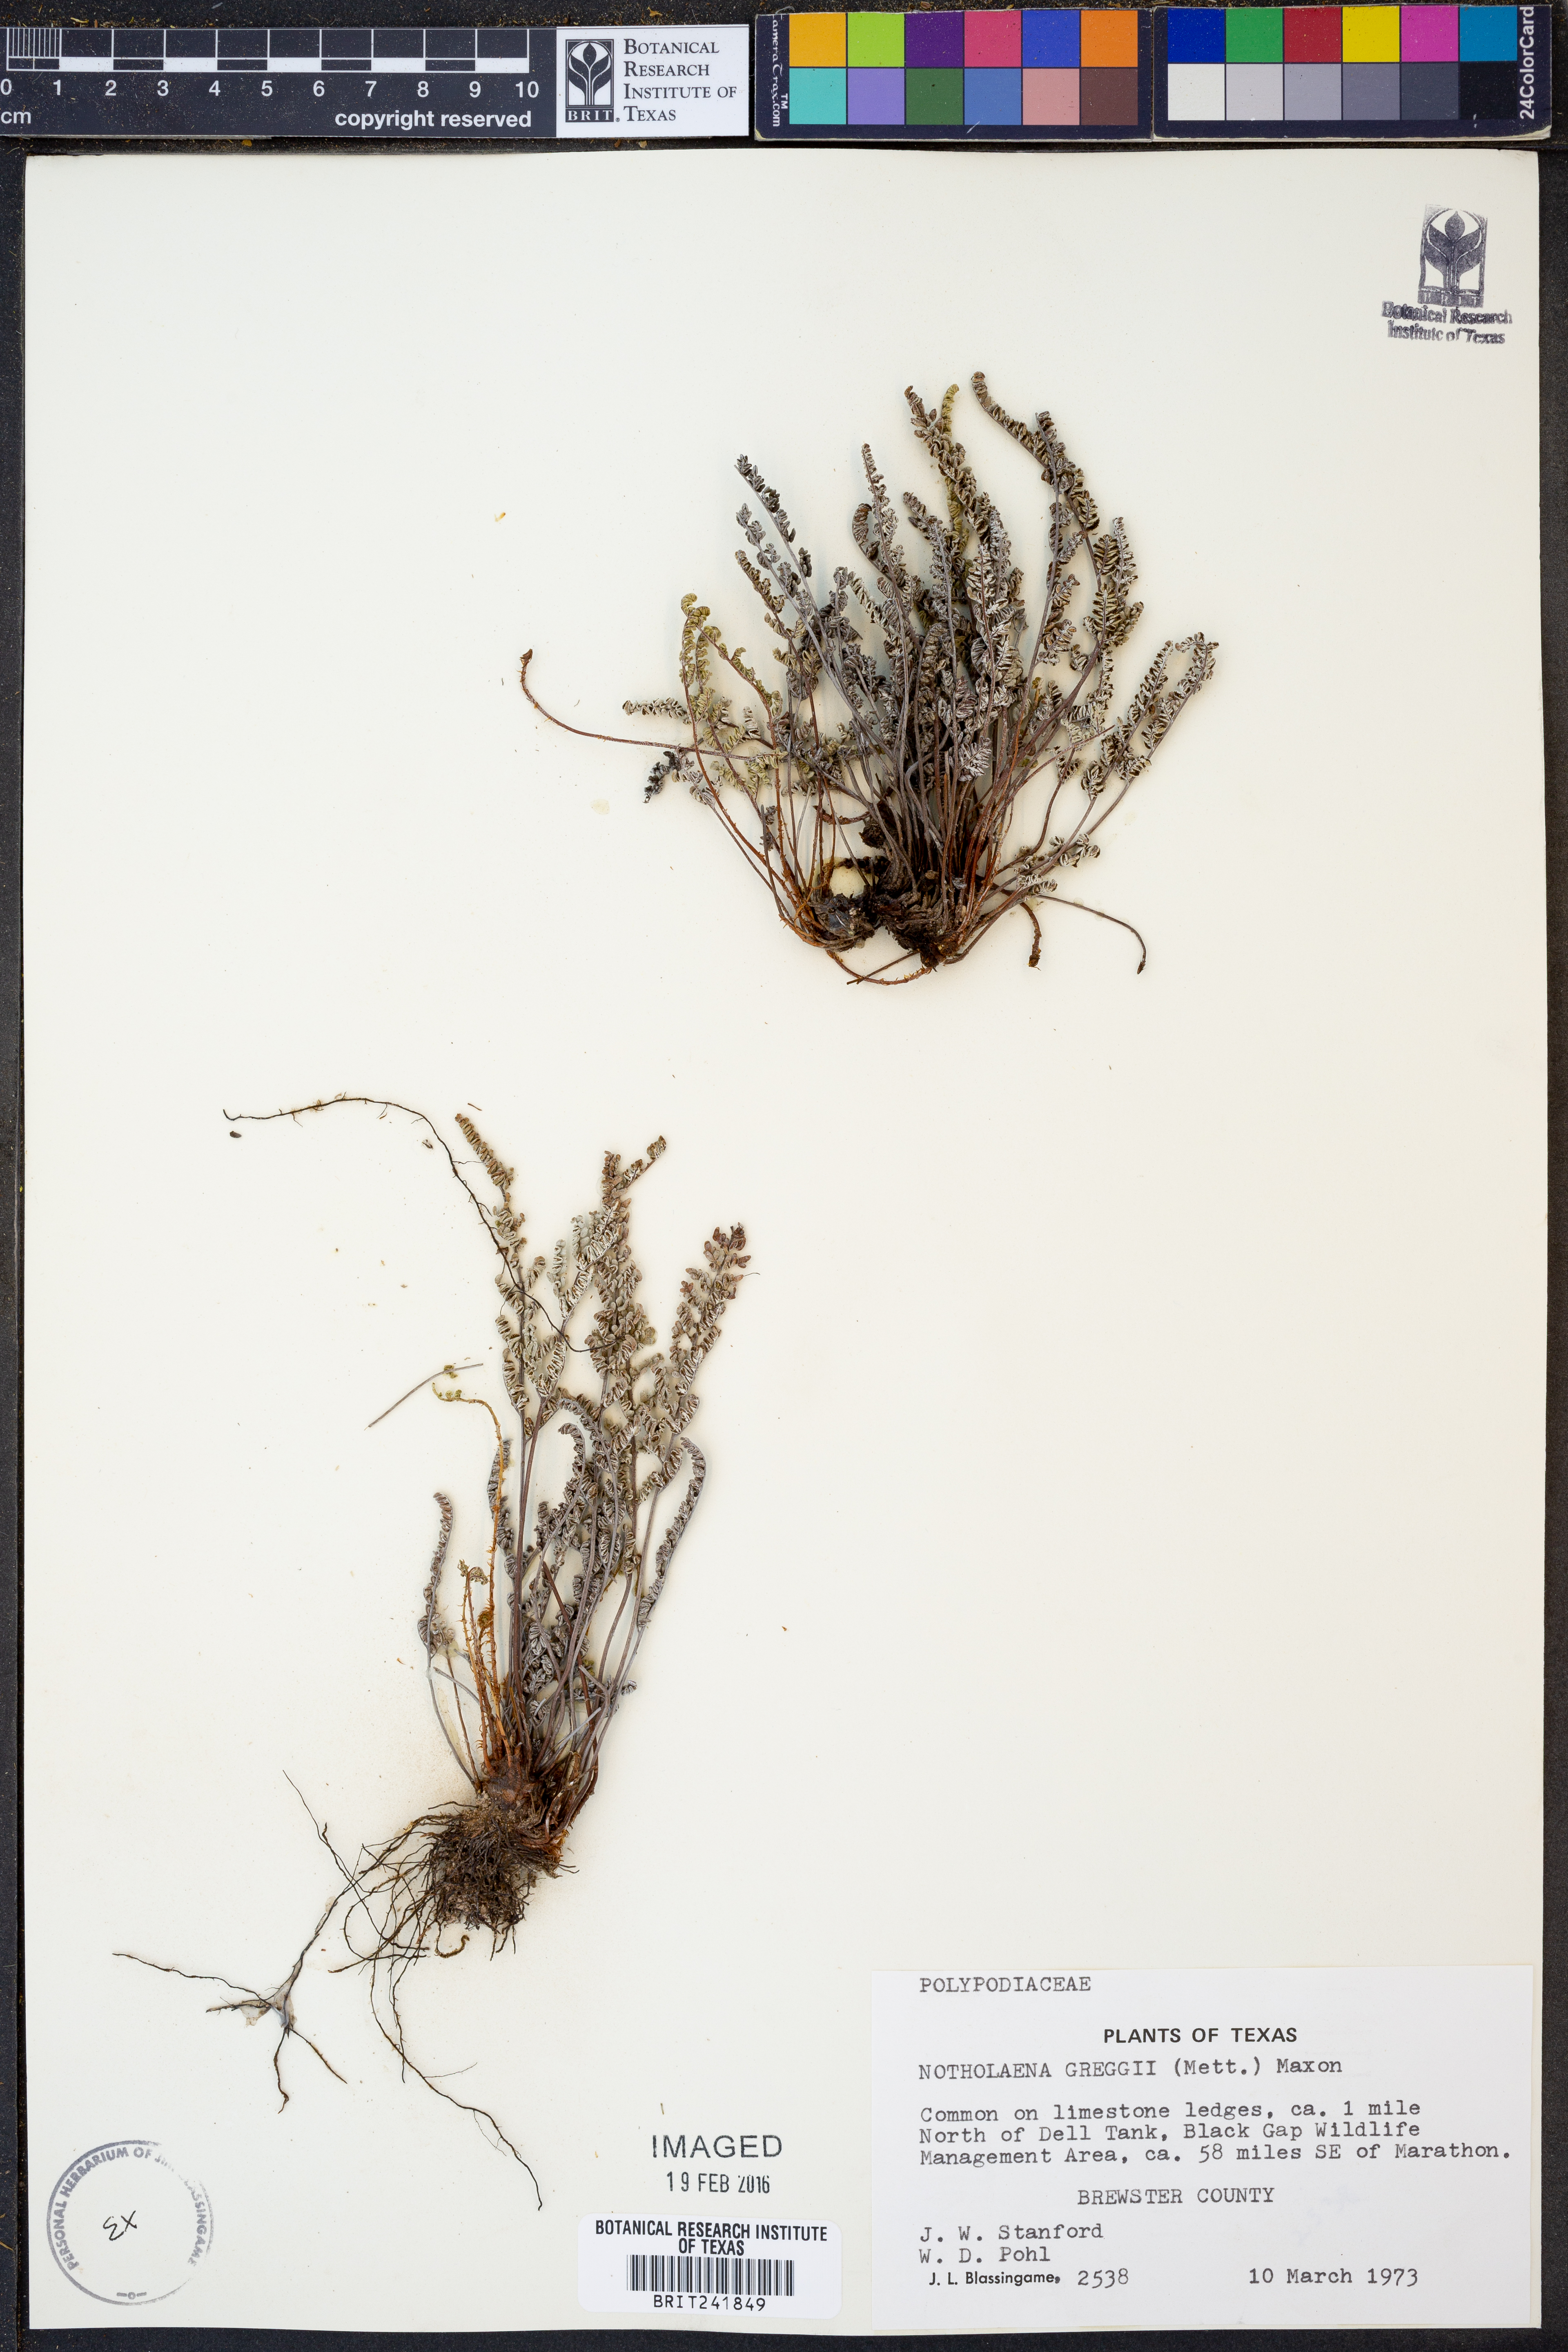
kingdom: Plantae
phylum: Tracheophyta
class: Polypodiopsida
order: Polypodiales
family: Pteridaceae
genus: Notholaena
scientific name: Notholaena greggii
